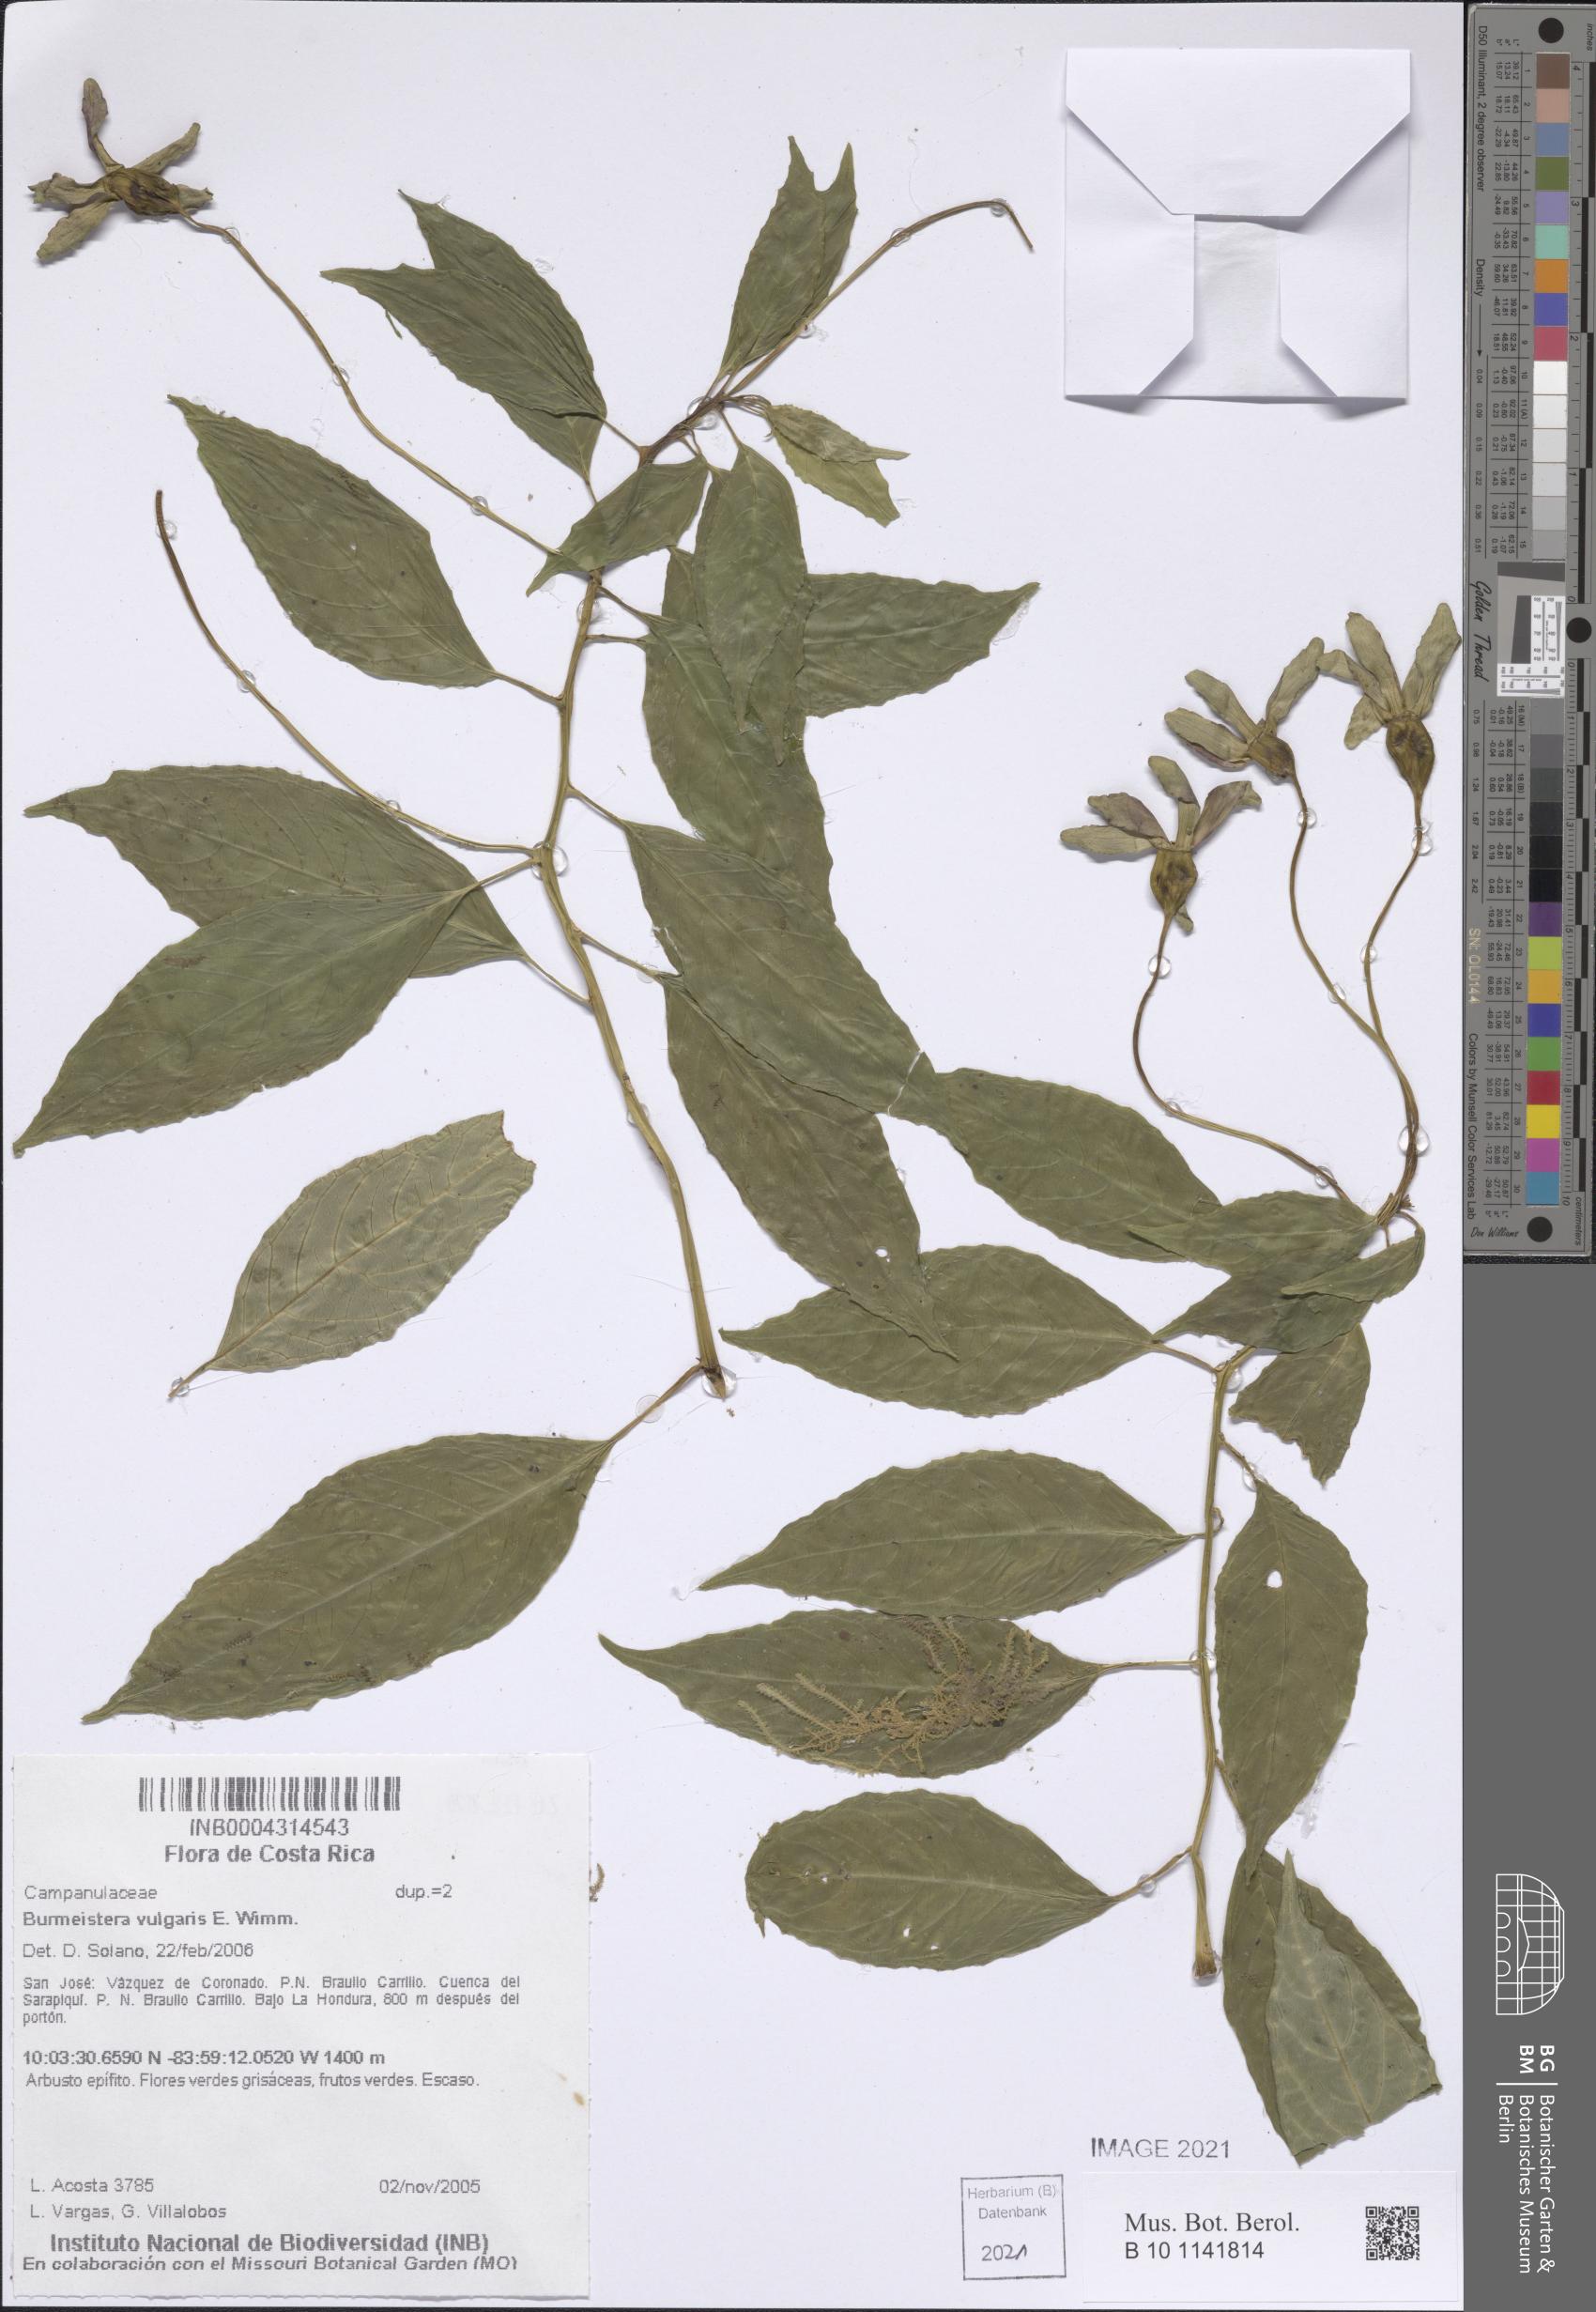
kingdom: Plantae
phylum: Tracheophyta
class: Magnoliopsida
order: Asterales
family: Campanulaceae
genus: Burmeistera
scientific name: Burmeistera vulgaris
